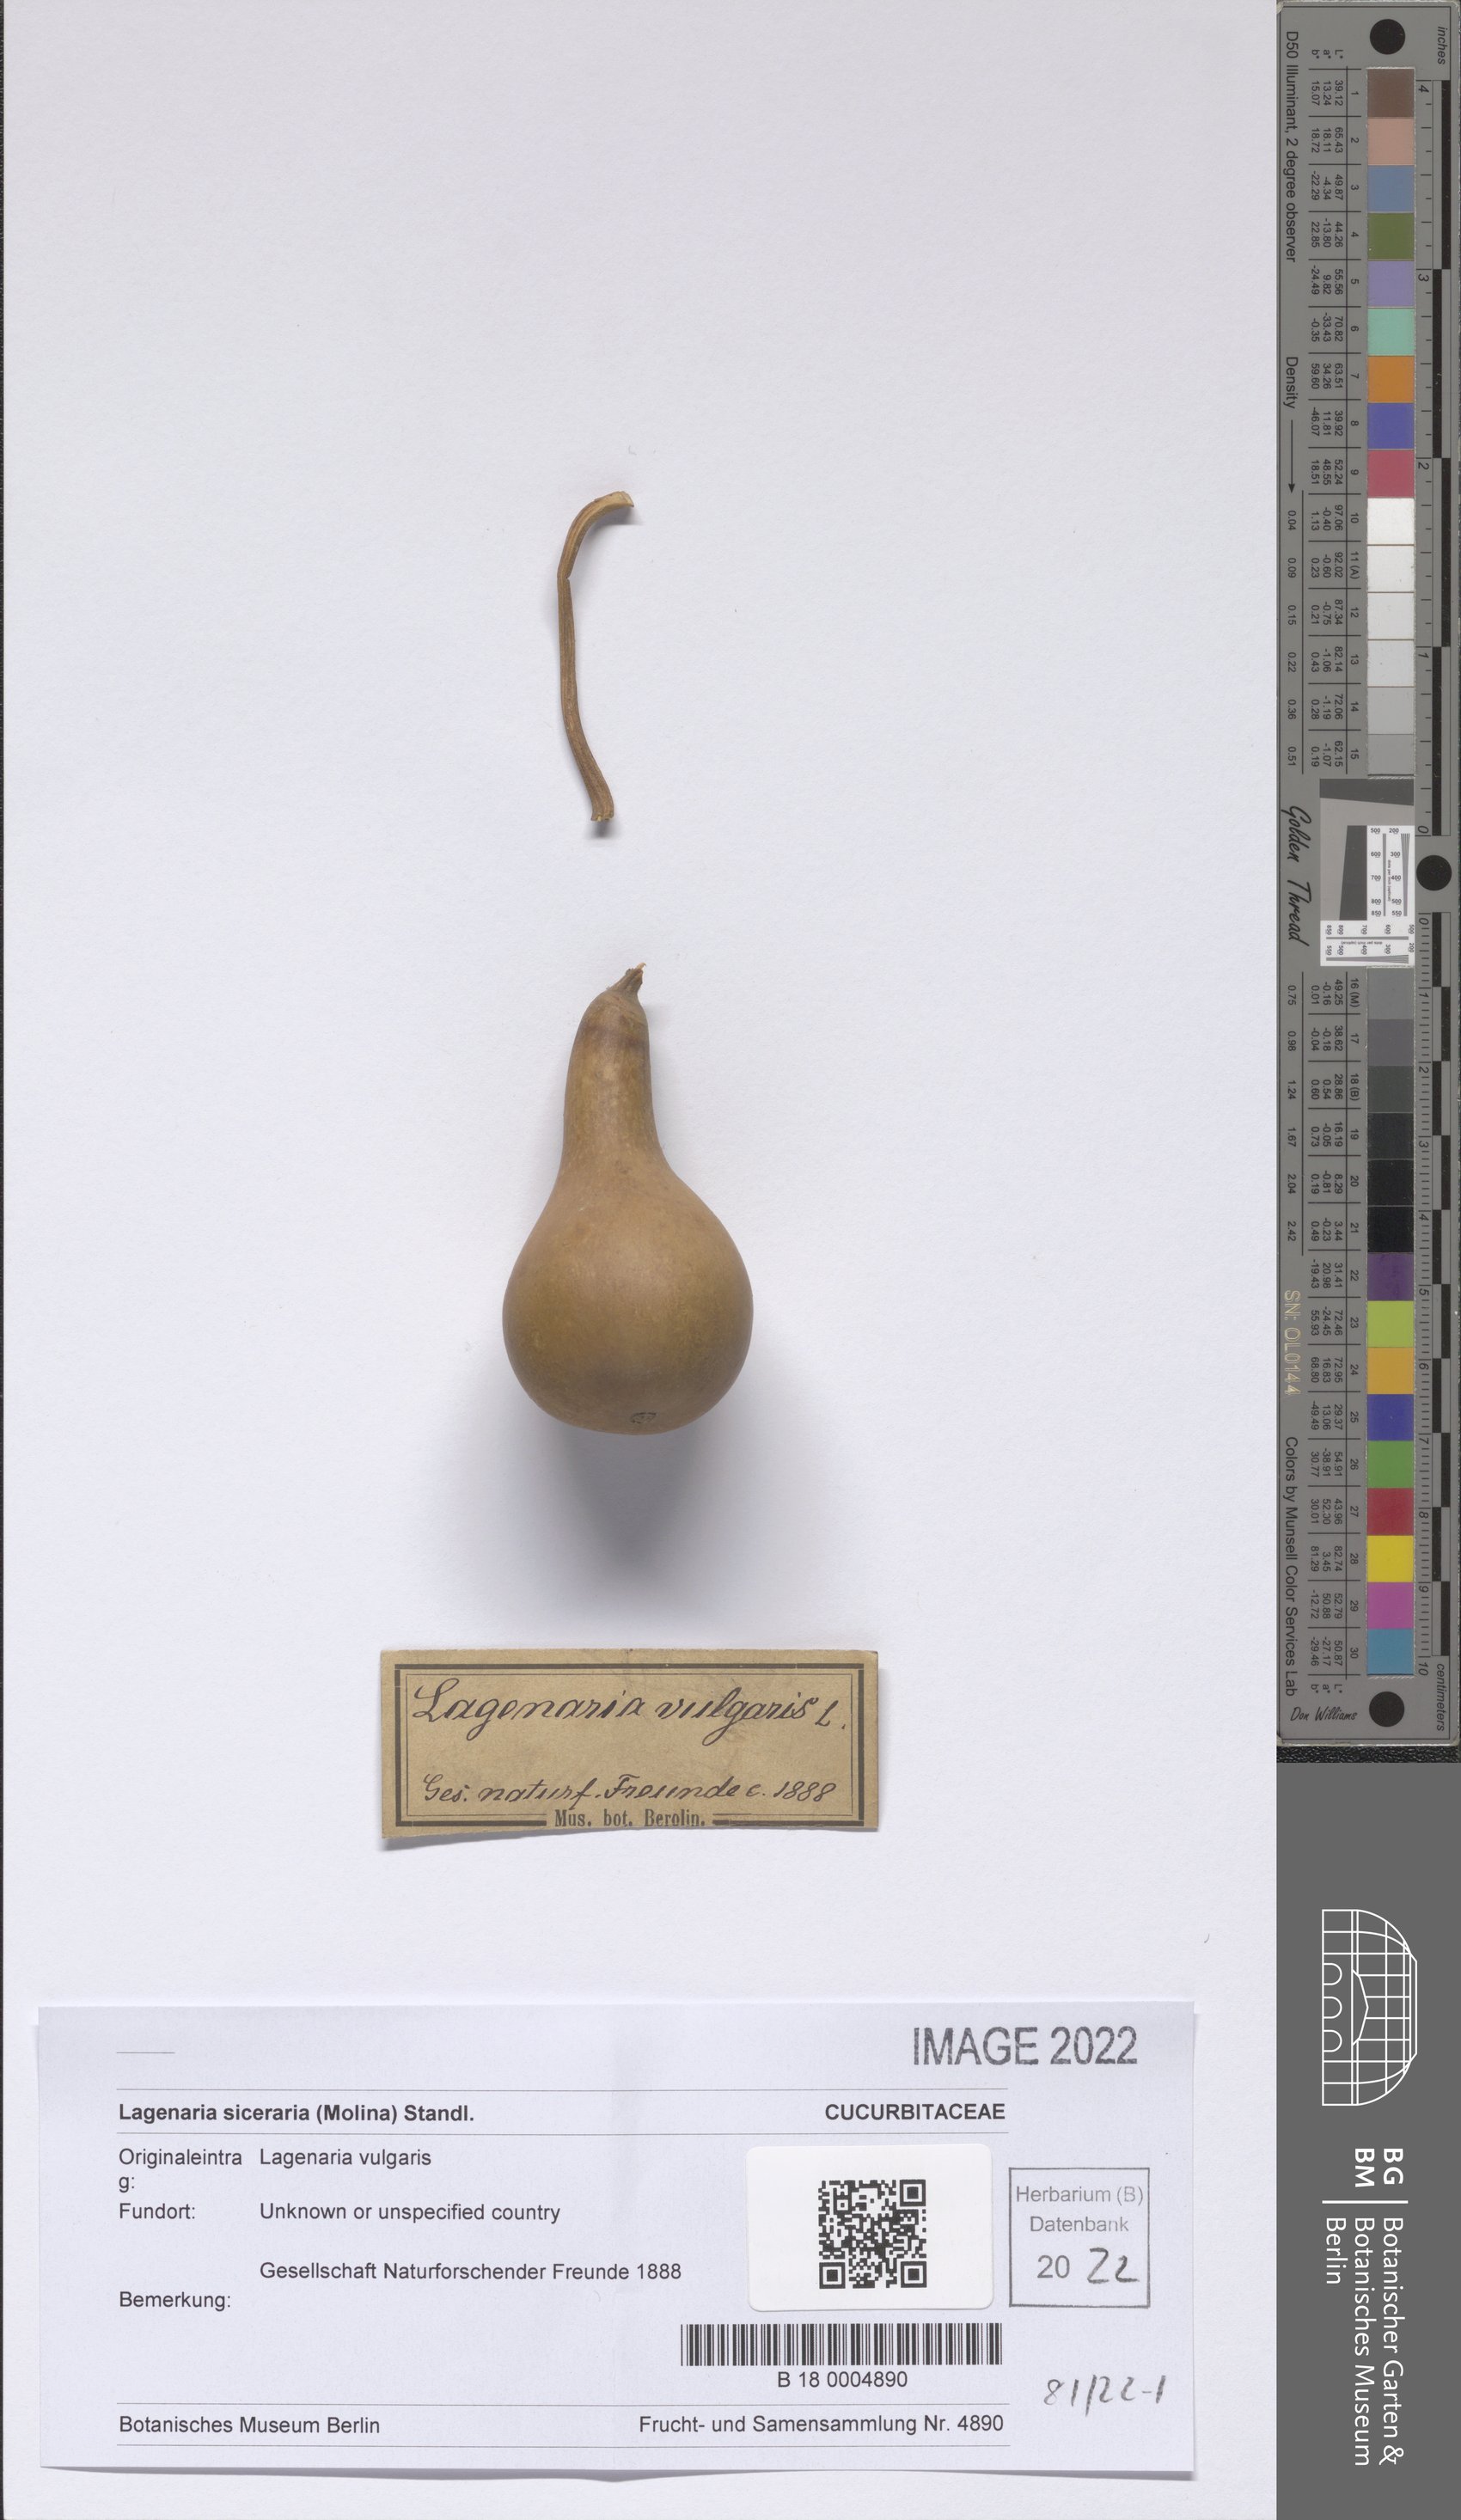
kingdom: Plantae
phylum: Tracheophyta
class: Magnoliopsida
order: Cucurbitales
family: Cucurbitaceae
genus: Lagenaria
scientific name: Lagenaria siceraria
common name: Bottle gourd
